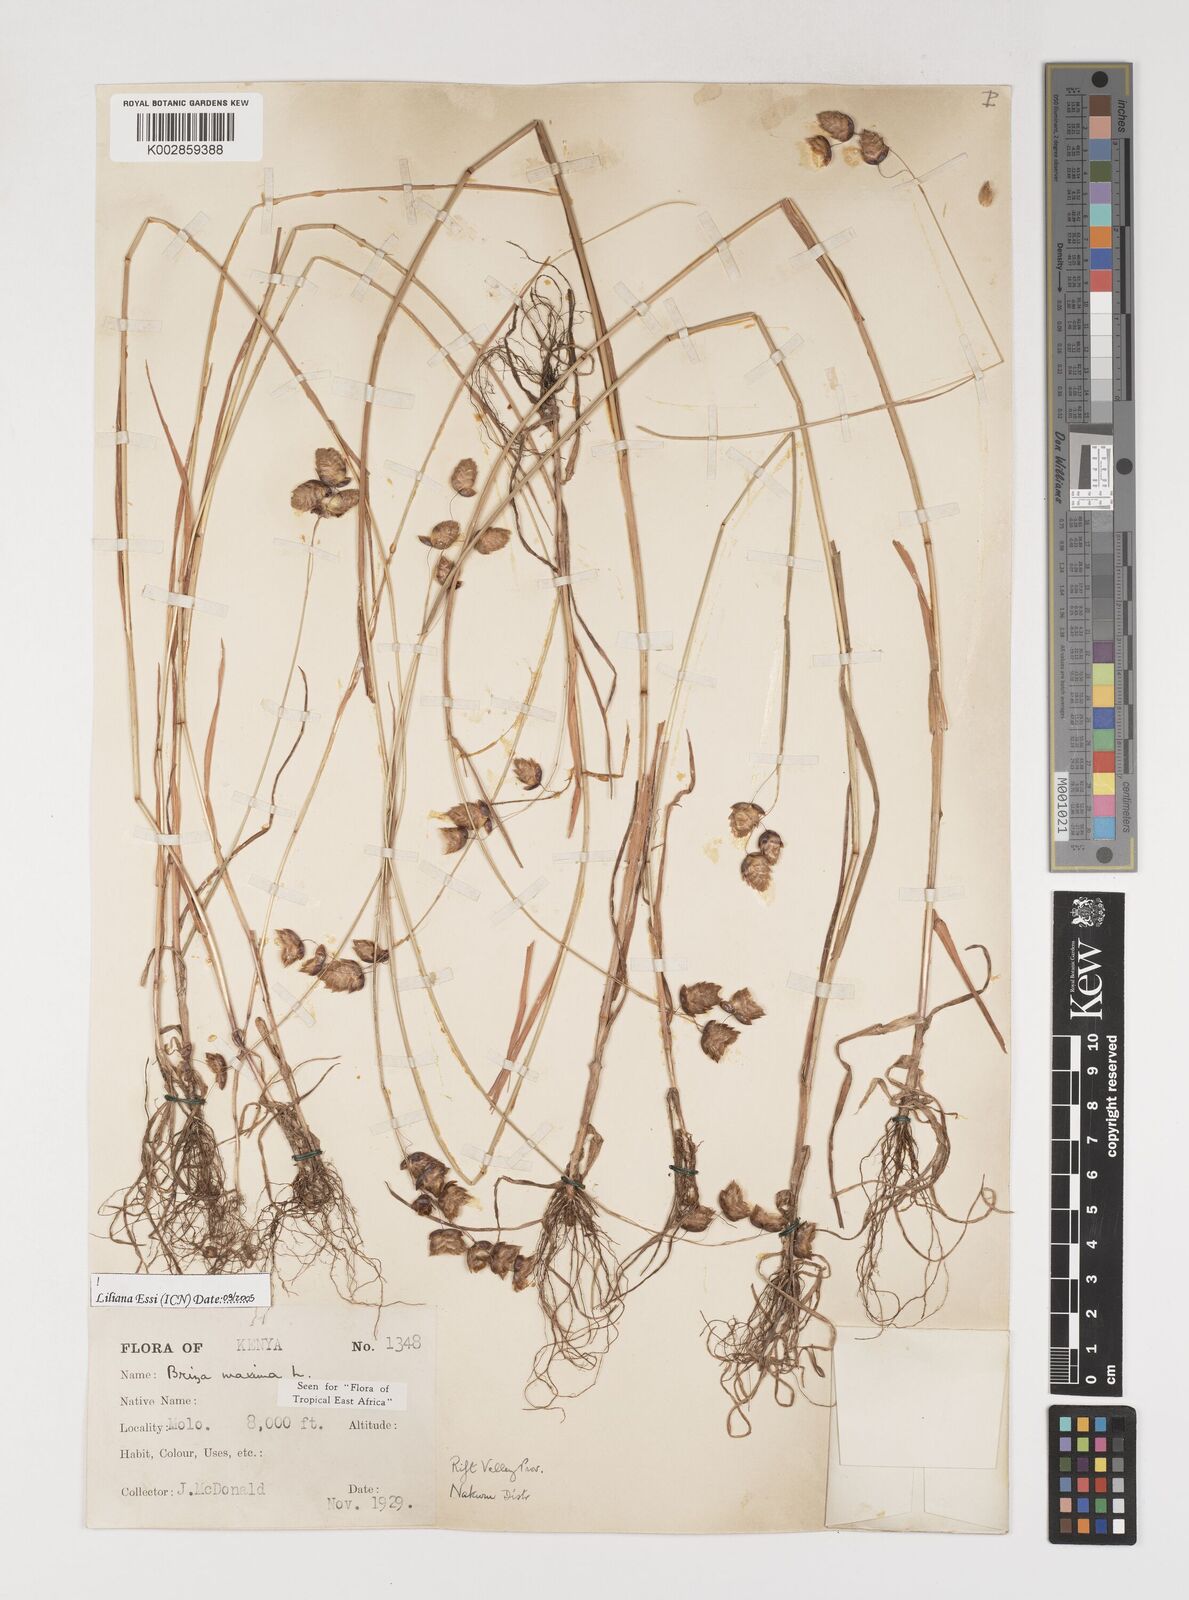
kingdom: Plantae
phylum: Tracheophyta
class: Liliopsida
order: Poales
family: Poaceae
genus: Briza
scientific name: Briza maxima
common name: Big quakinggrass
